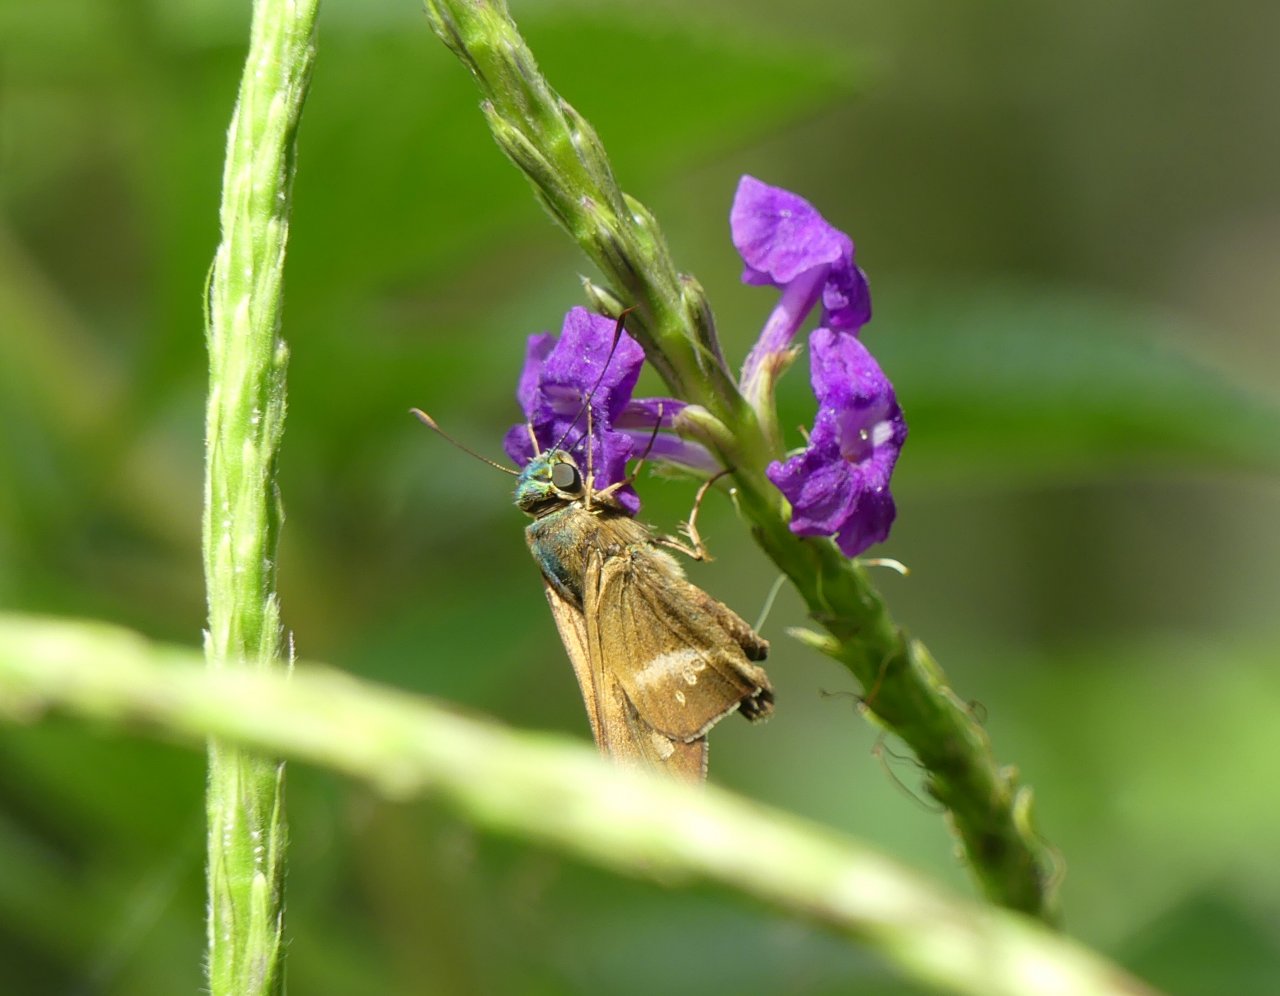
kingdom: Animalia
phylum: Arthropoda
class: Insecta
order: Lepidoptera
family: Hesperiidae
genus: Niconiades
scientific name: Niconiades nikko
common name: Nikko Skipper
